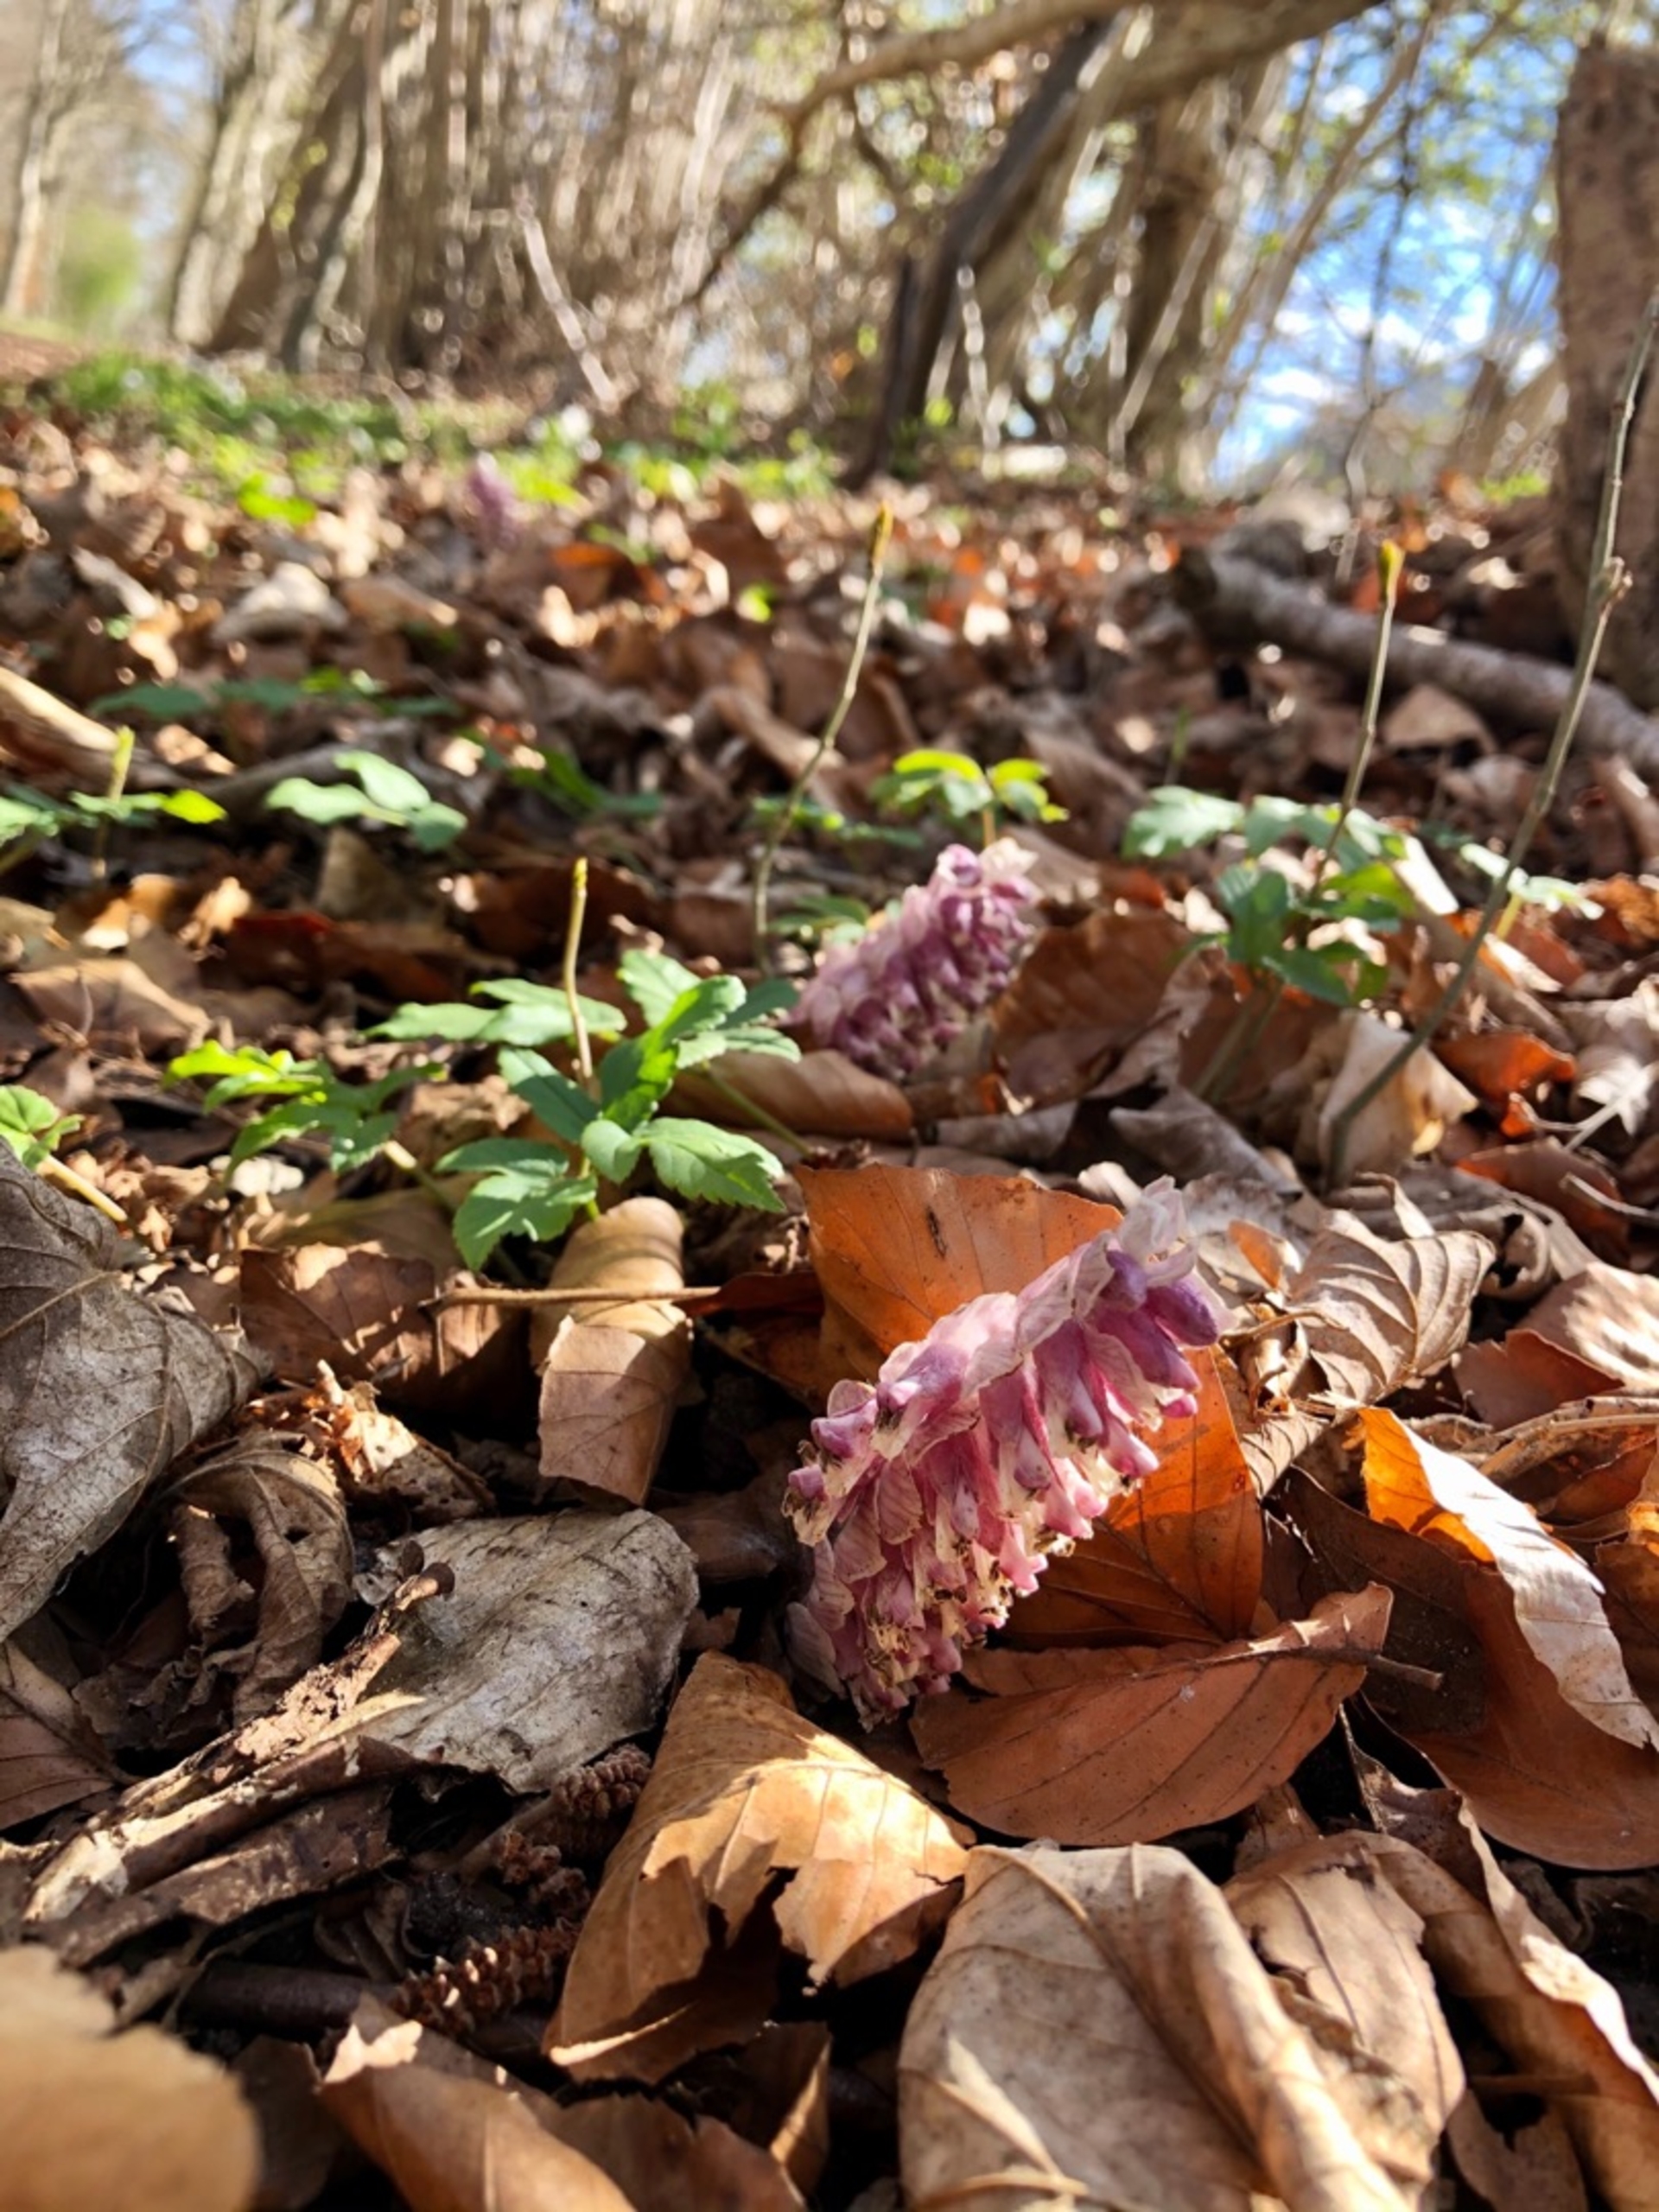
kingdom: Plantae
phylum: Tracheophyta
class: Magnoliopsida
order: Lamiales
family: Orobanchaceae
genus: Lathraea
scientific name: Lathraea squamaria
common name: Skælrod
